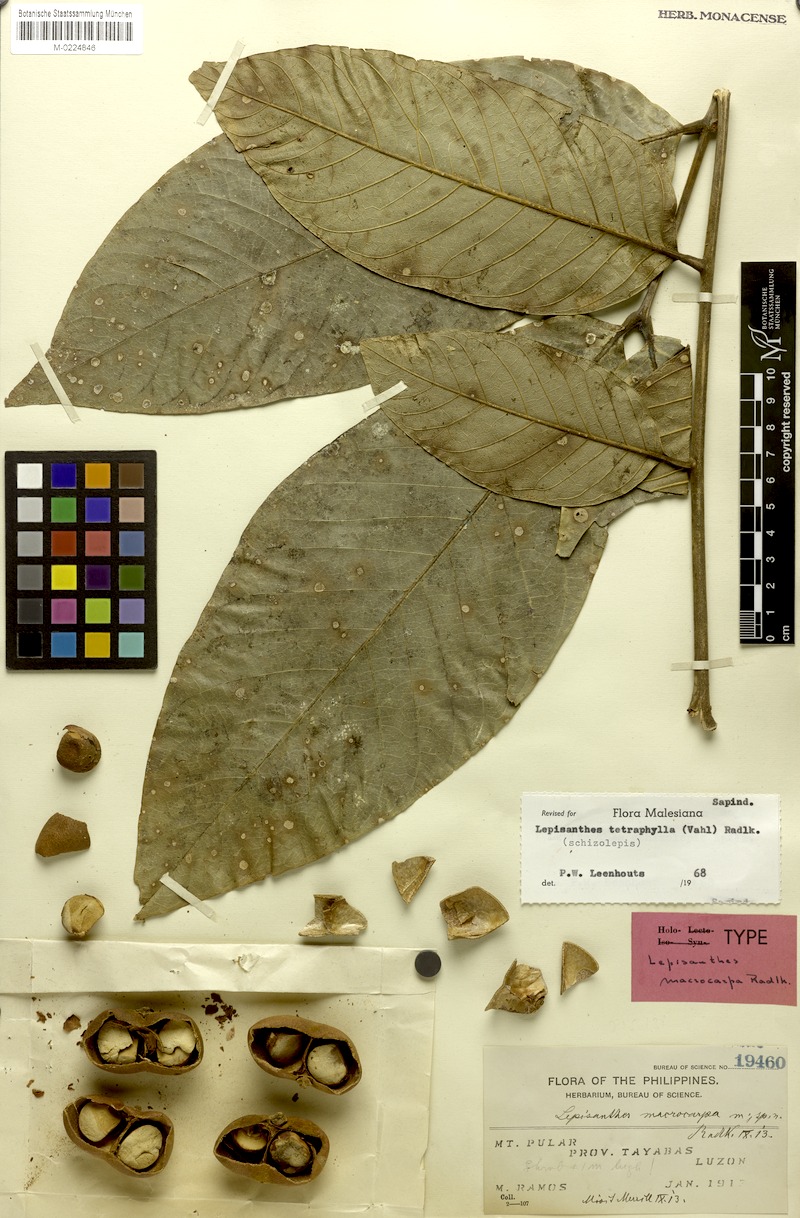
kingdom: Plantae
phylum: Tracheophyta
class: Magnoliopsida
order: Sapindales
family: Sapindaceae
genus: Lepisanthes
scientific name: Lepisanthes tetraphylla
